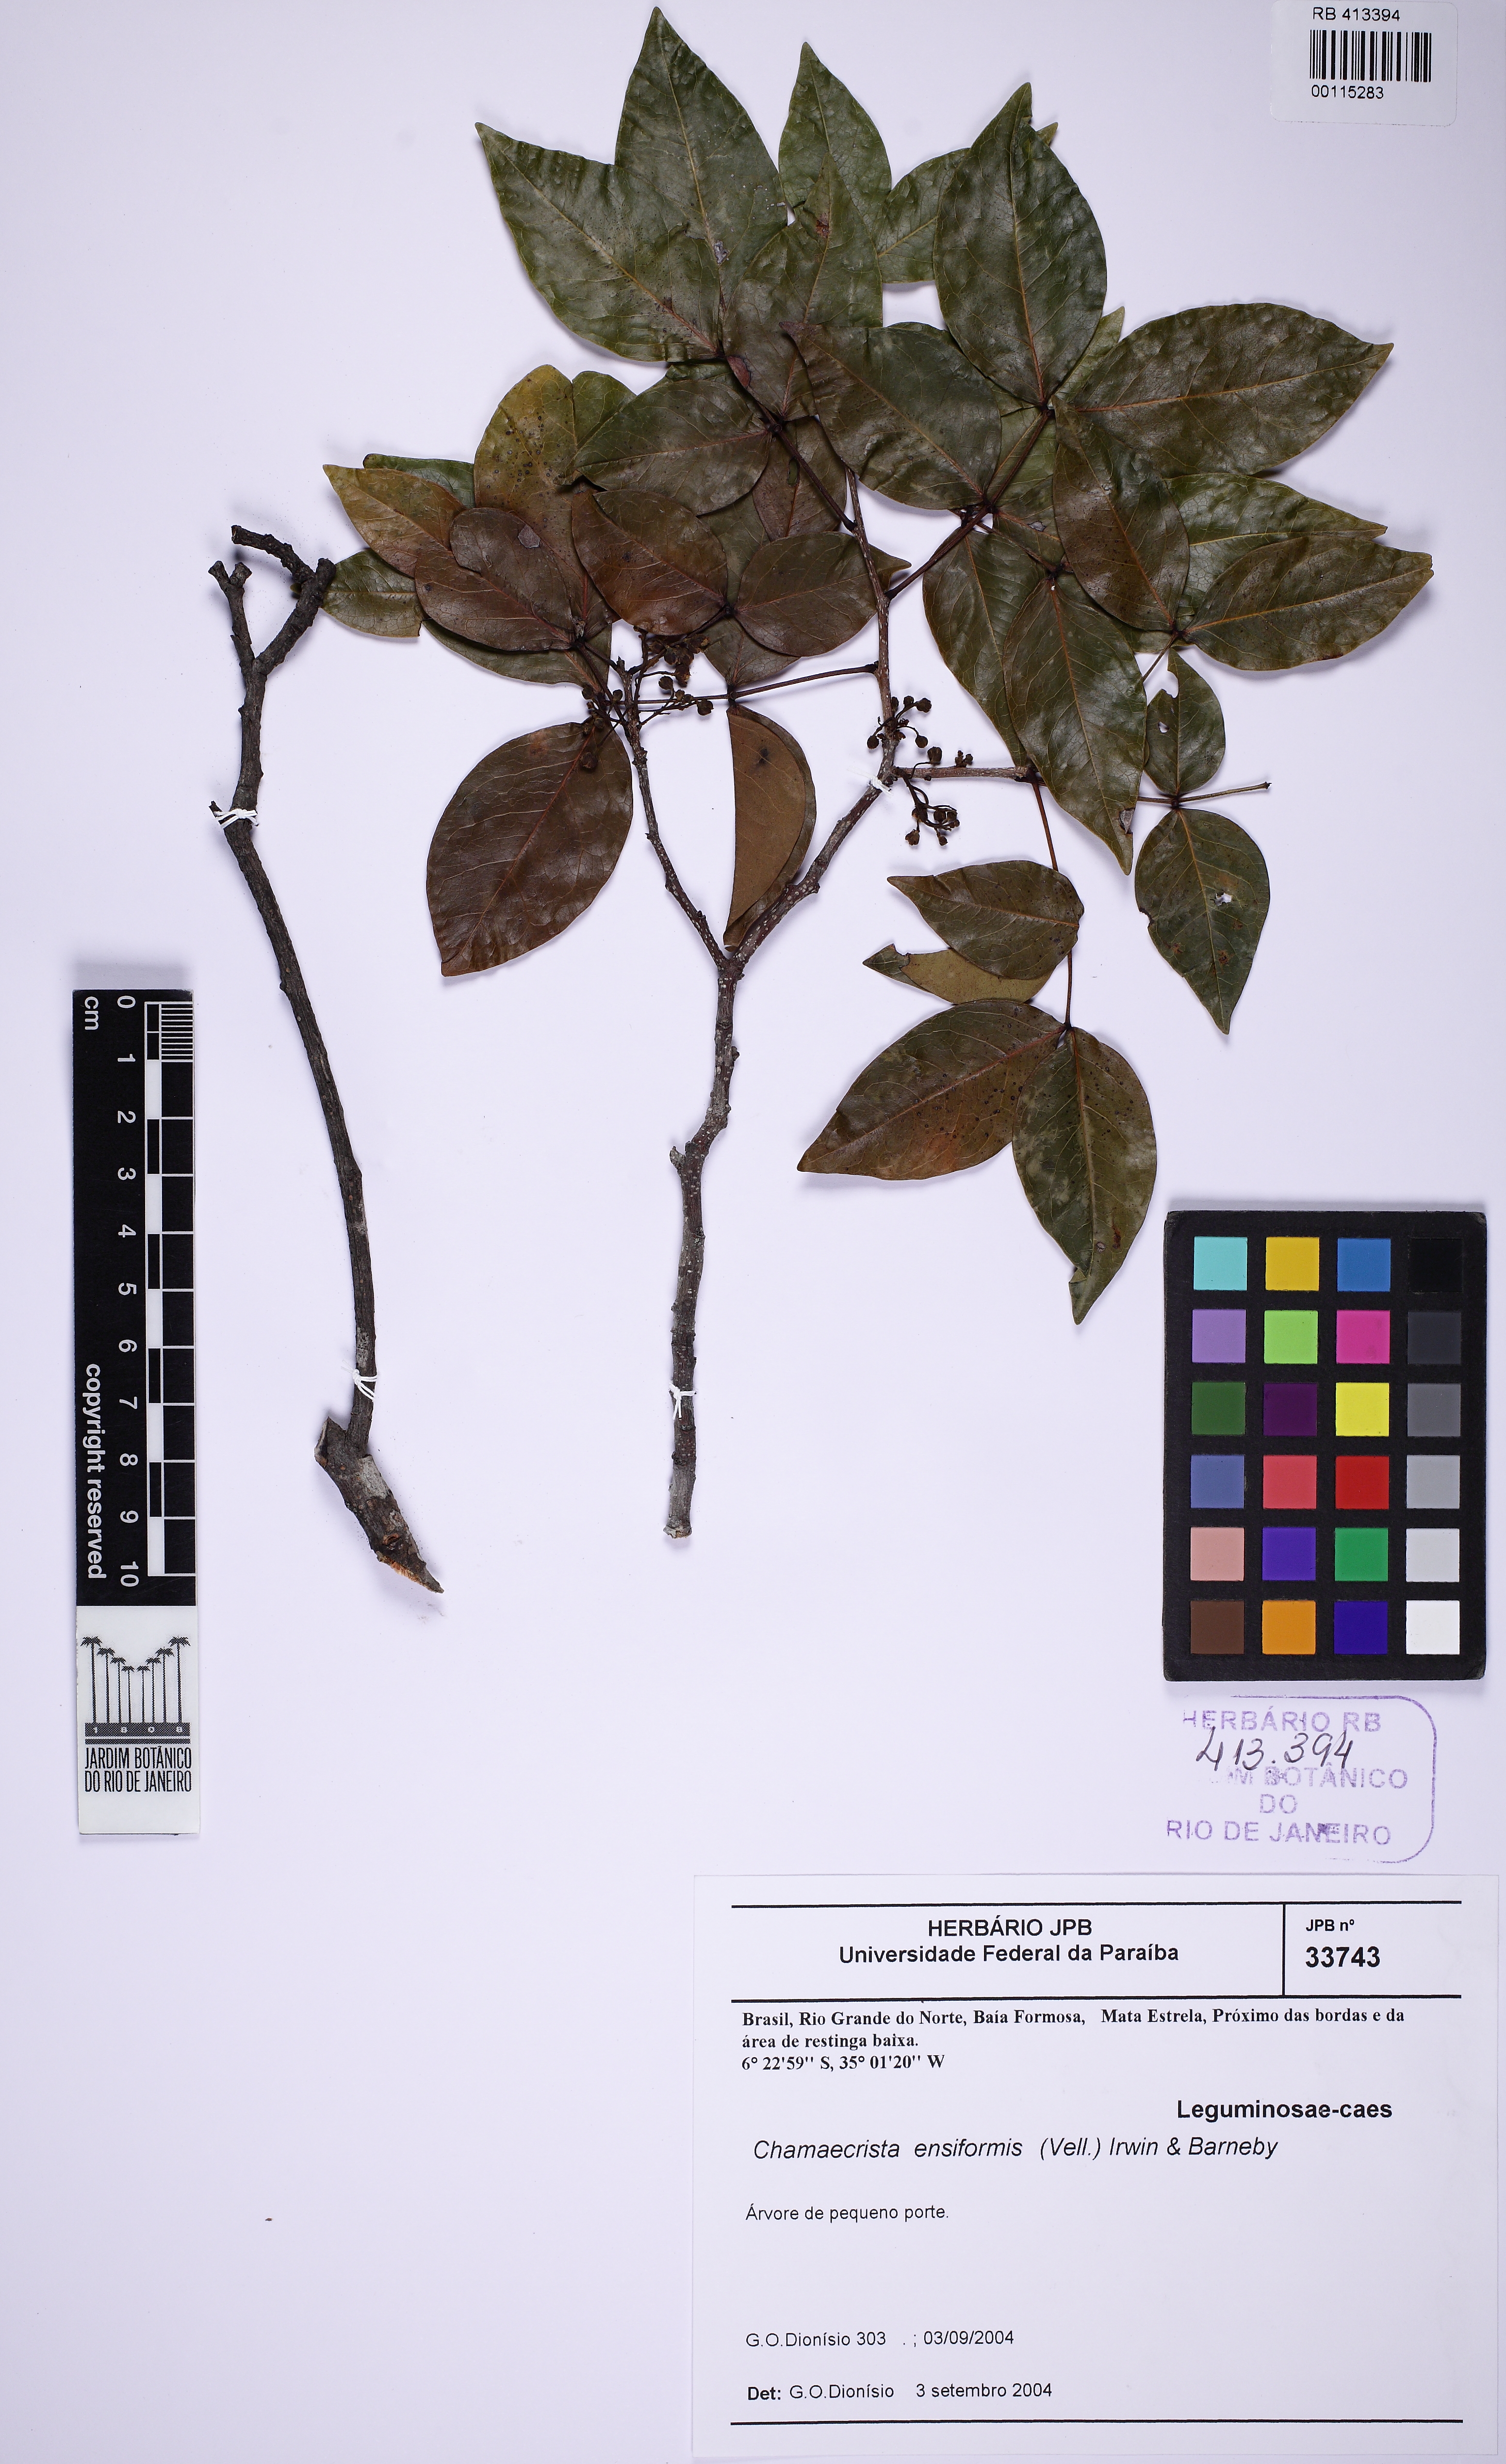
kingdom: Plantae
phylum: Tracheophyta
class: Magnoliopsida
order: Fabales
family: Fabaceae
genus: Chamaecrista
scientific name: Chamaecrista ensiformis
